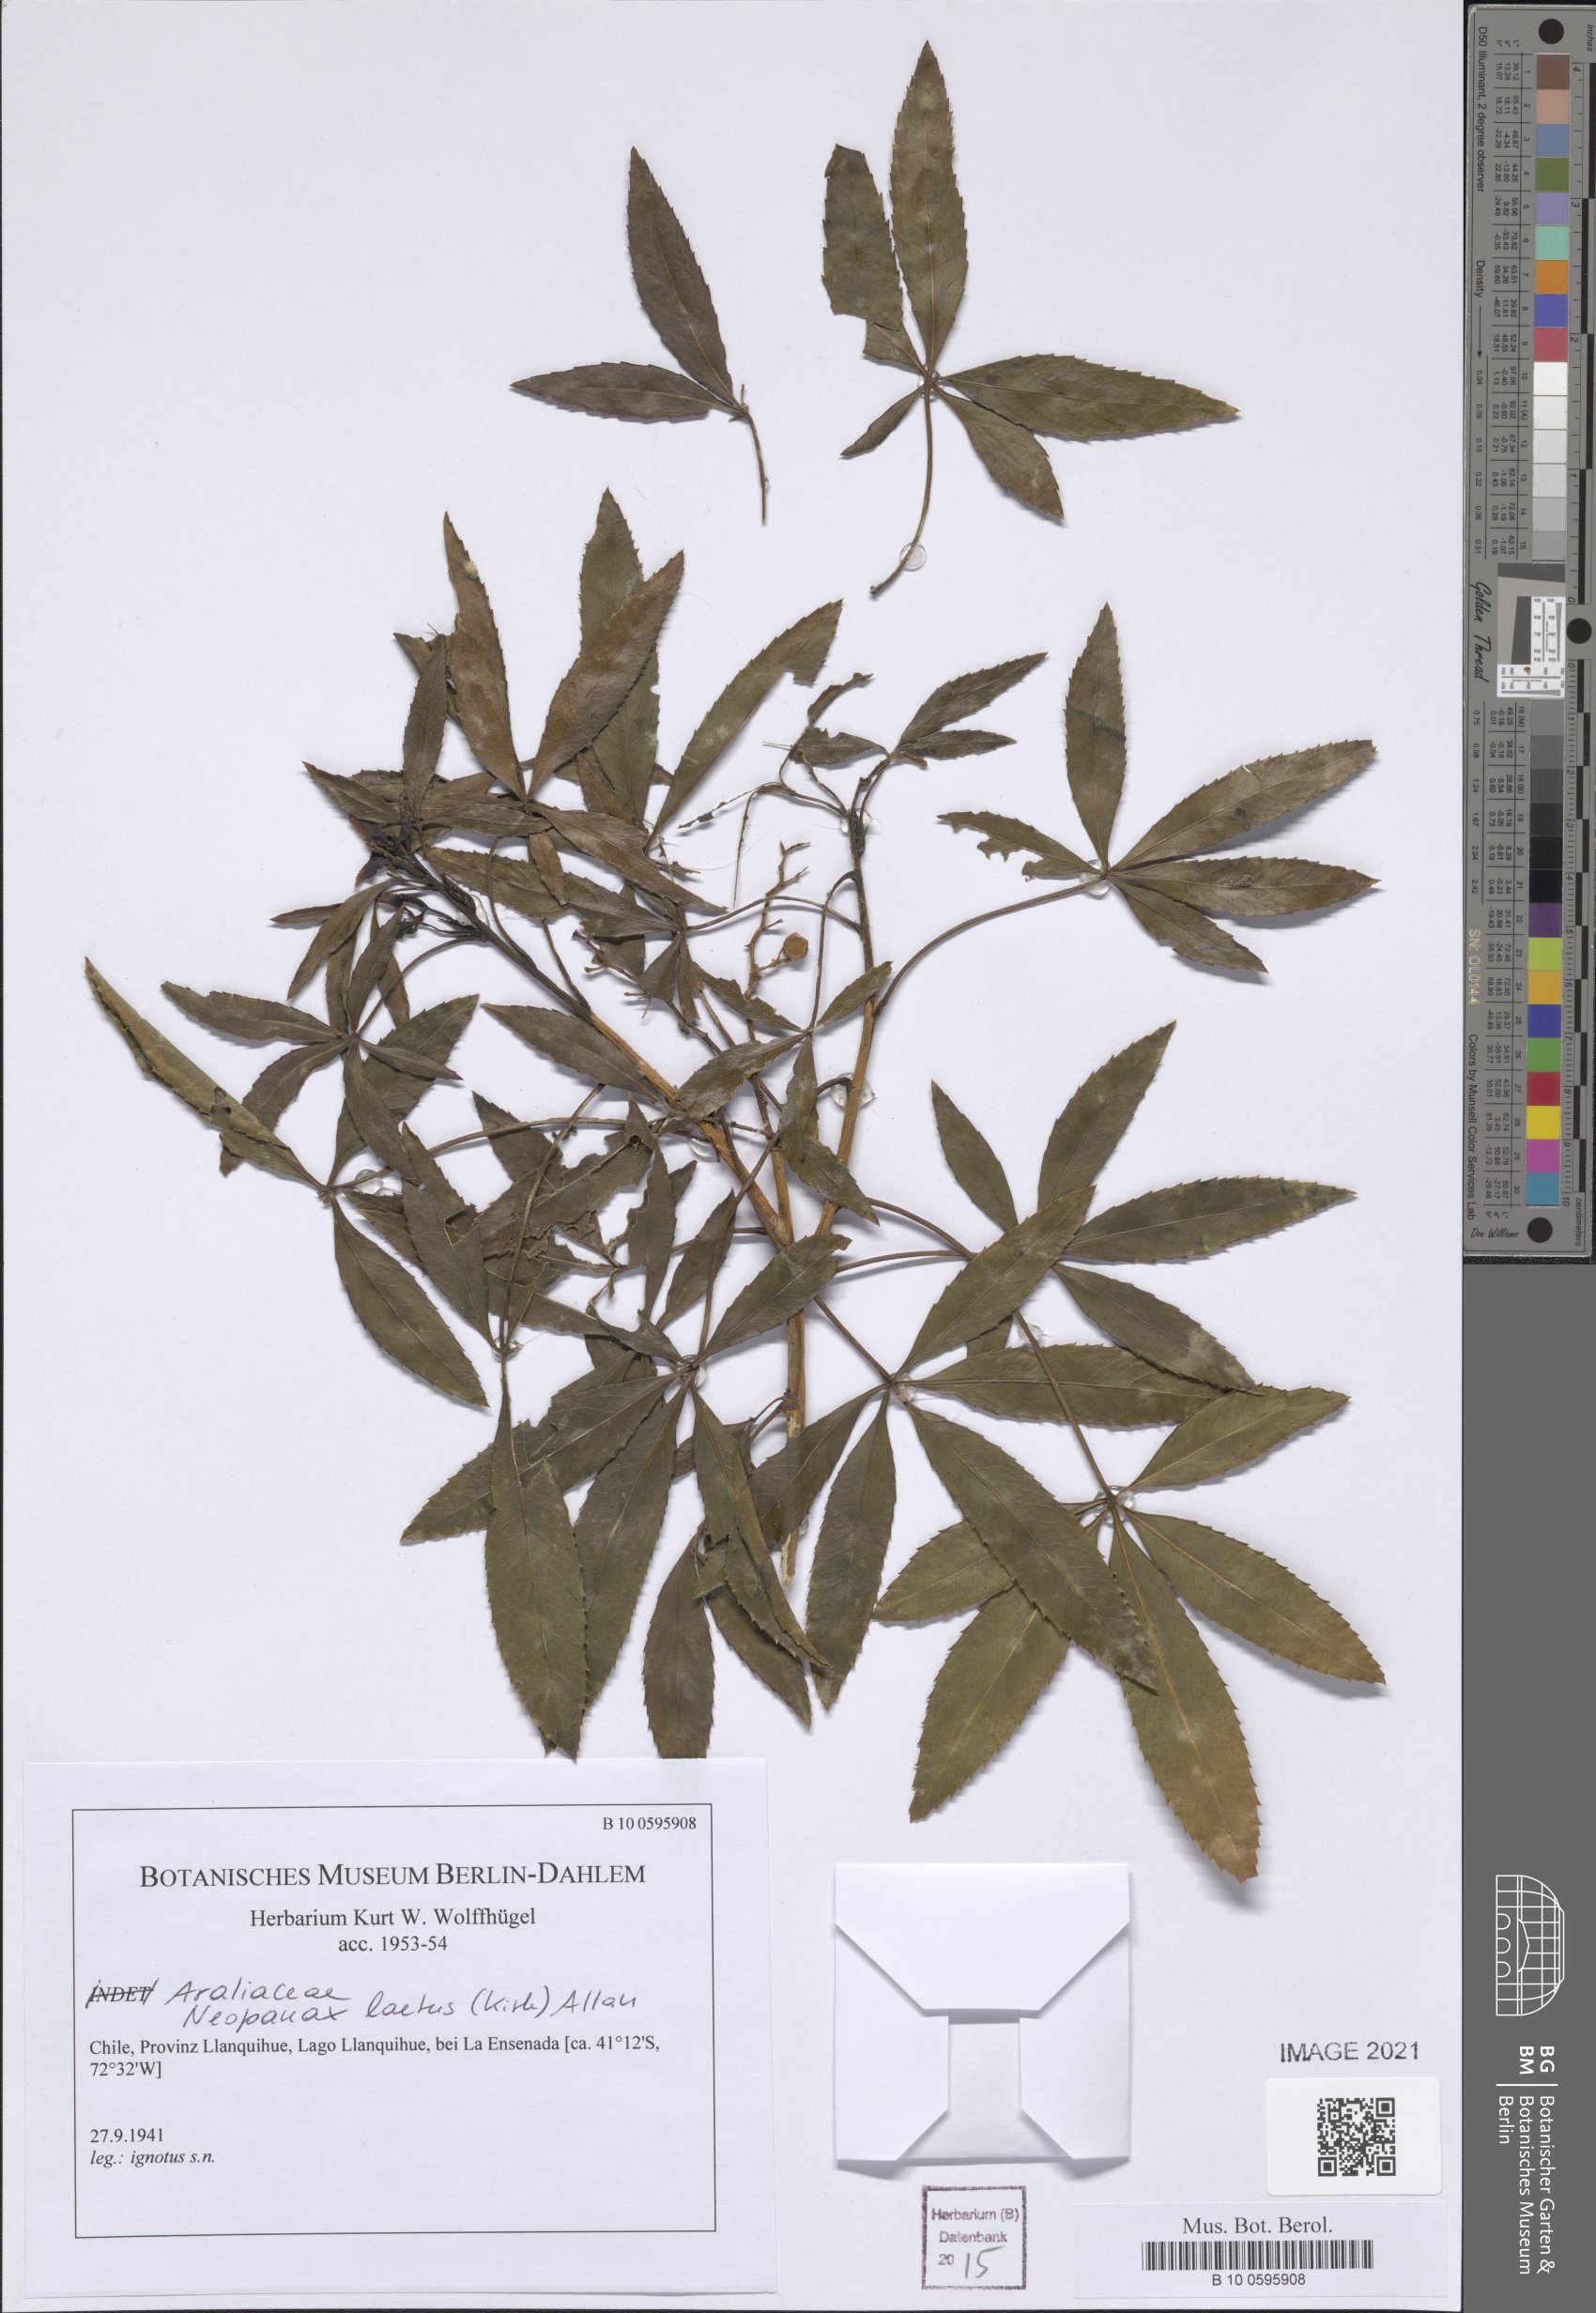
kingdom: Plantae
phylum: Tracheophyta
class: Magnoliopsida
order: Apiales
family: Araliaceae
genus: Neopanax
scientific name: Neopanax laetus
